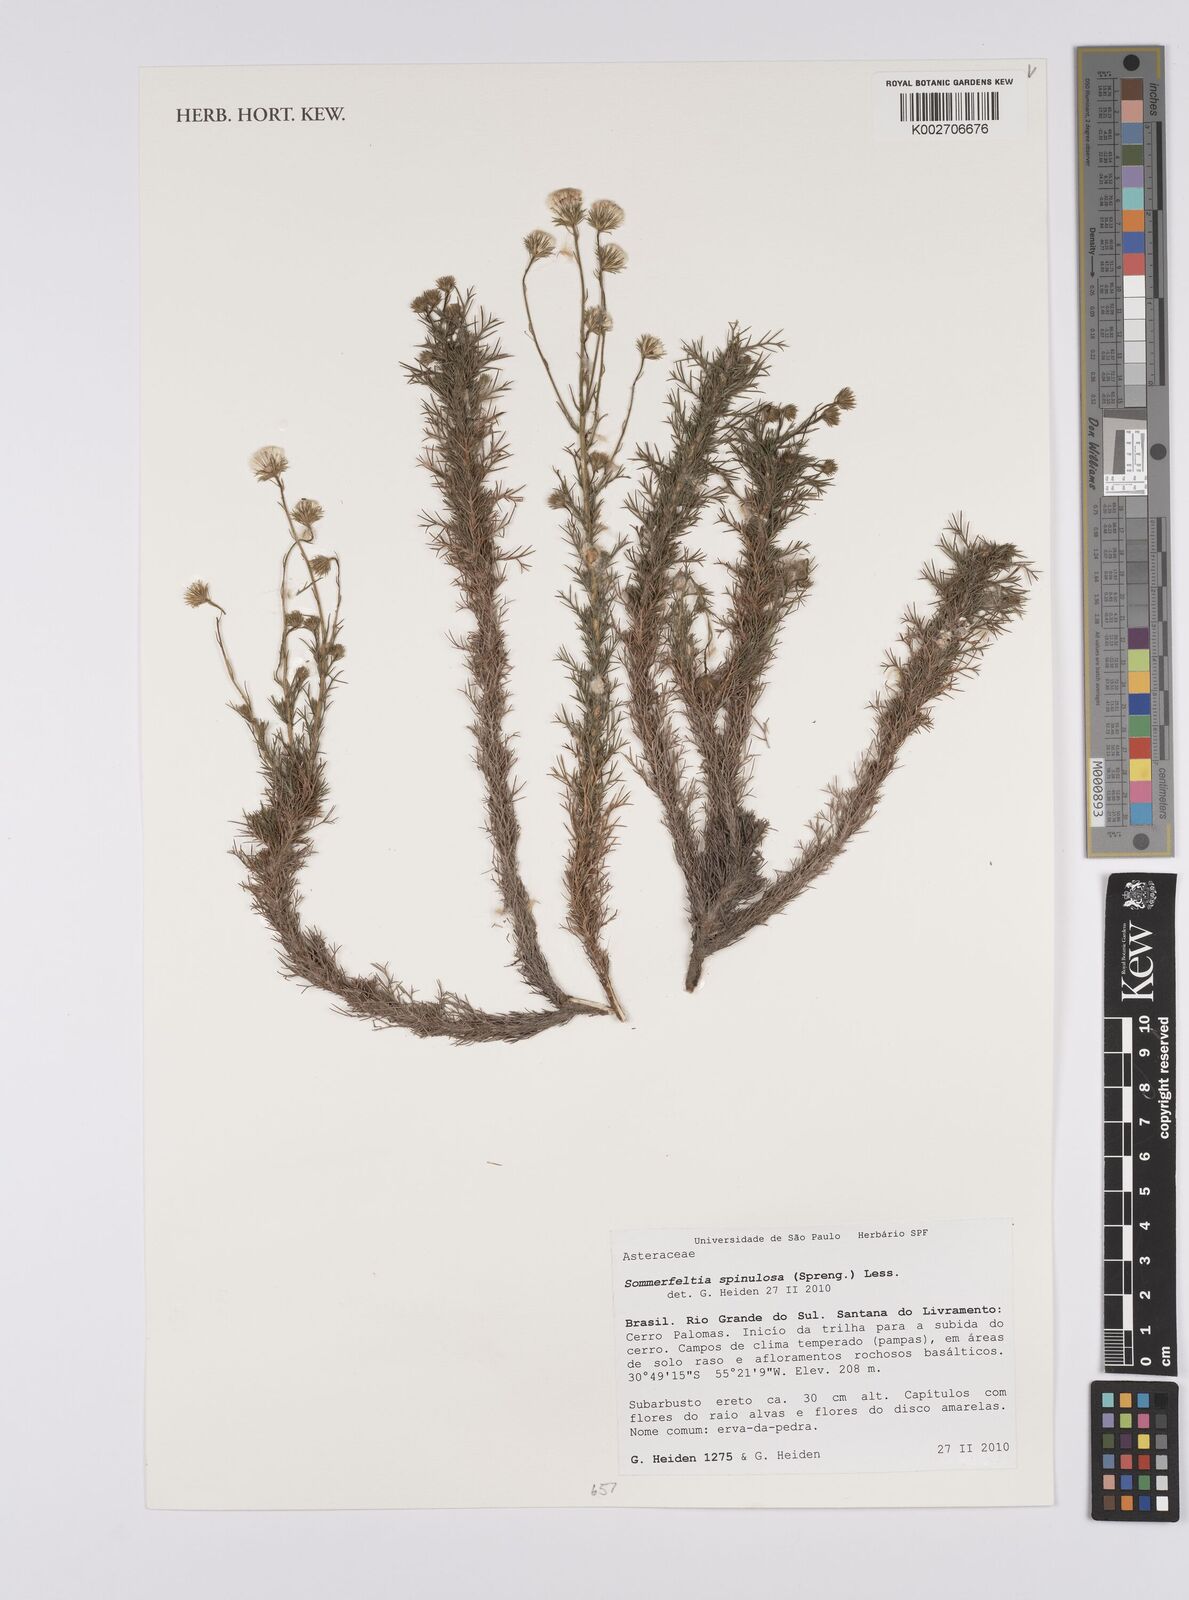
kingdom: Plantae
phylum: Tracheophyta
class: Magnoliopsida
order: Asterales
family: Asteraceae
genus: Sommerfeltia
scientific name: Sommerfeltia spinulosa
